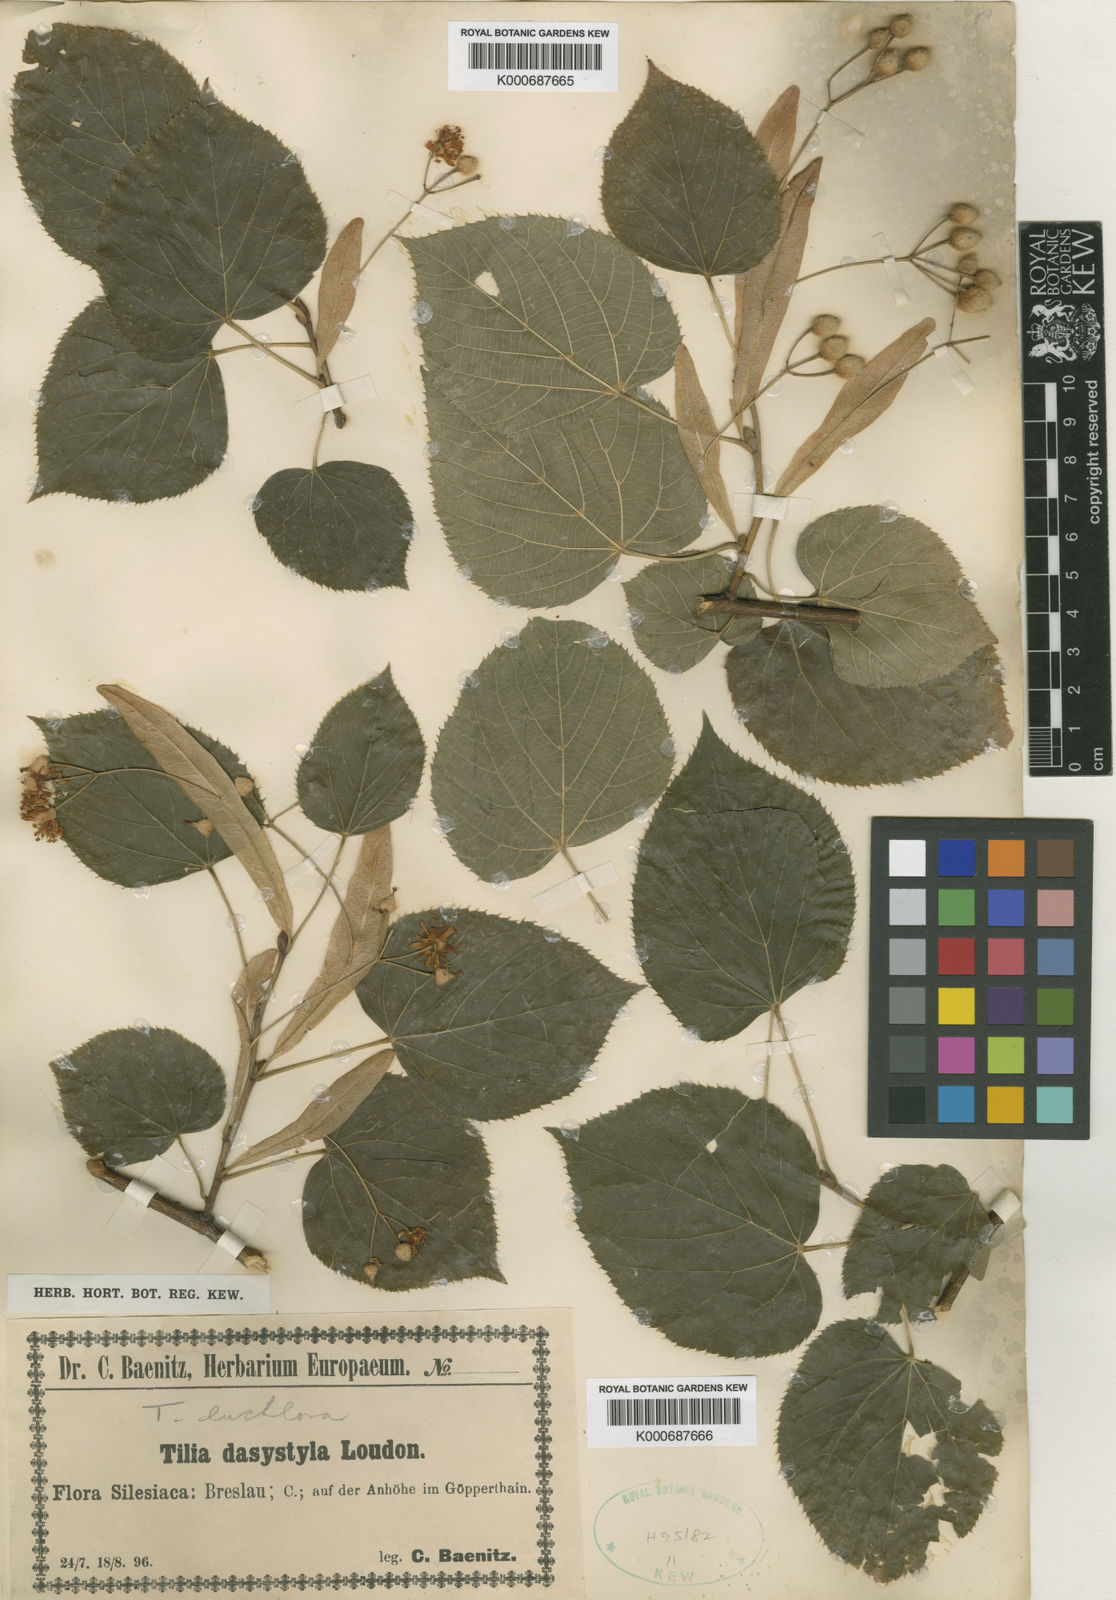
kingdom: Plantae
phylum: Tracheophyta
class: Magnoliopsida
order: Malvales
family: Malvaceae
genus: Tilia
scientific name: Tilia
